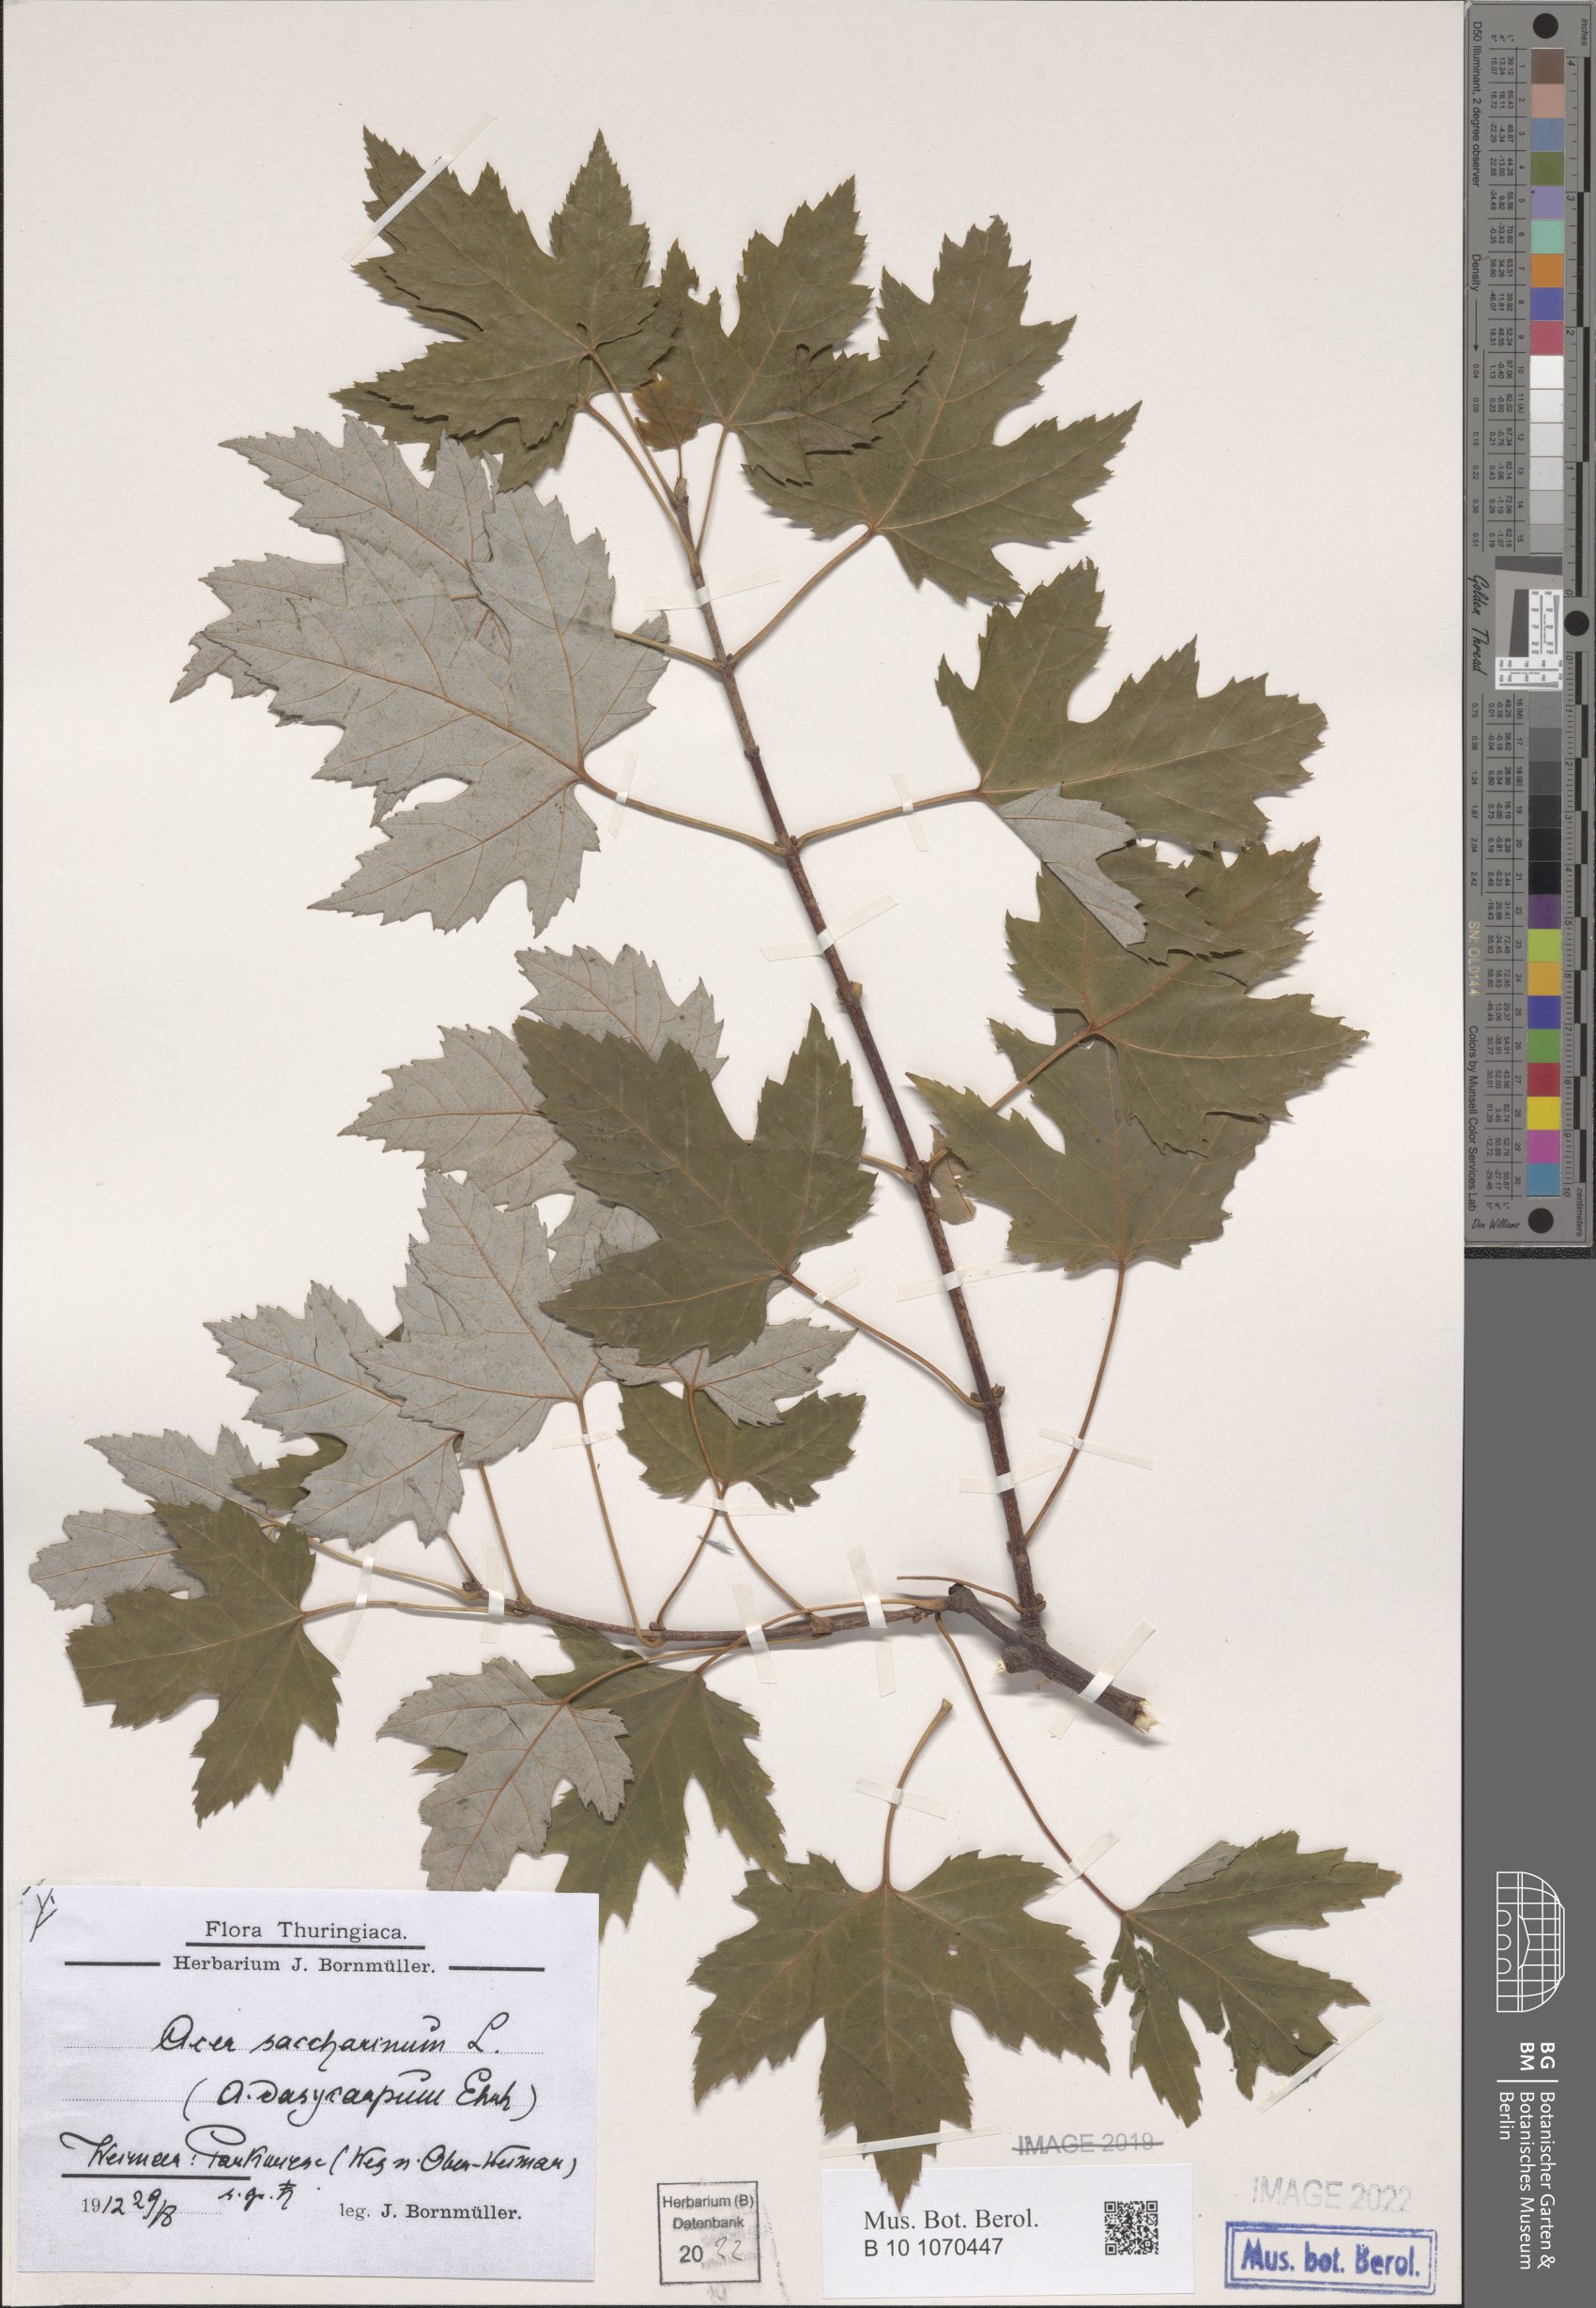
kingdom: Plantae
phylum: Tracheophyta
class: Magnoliopsida
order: Sapindales
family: Sapindaceae
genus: Acer
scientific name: Acer saccharinum
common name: Silver maple
